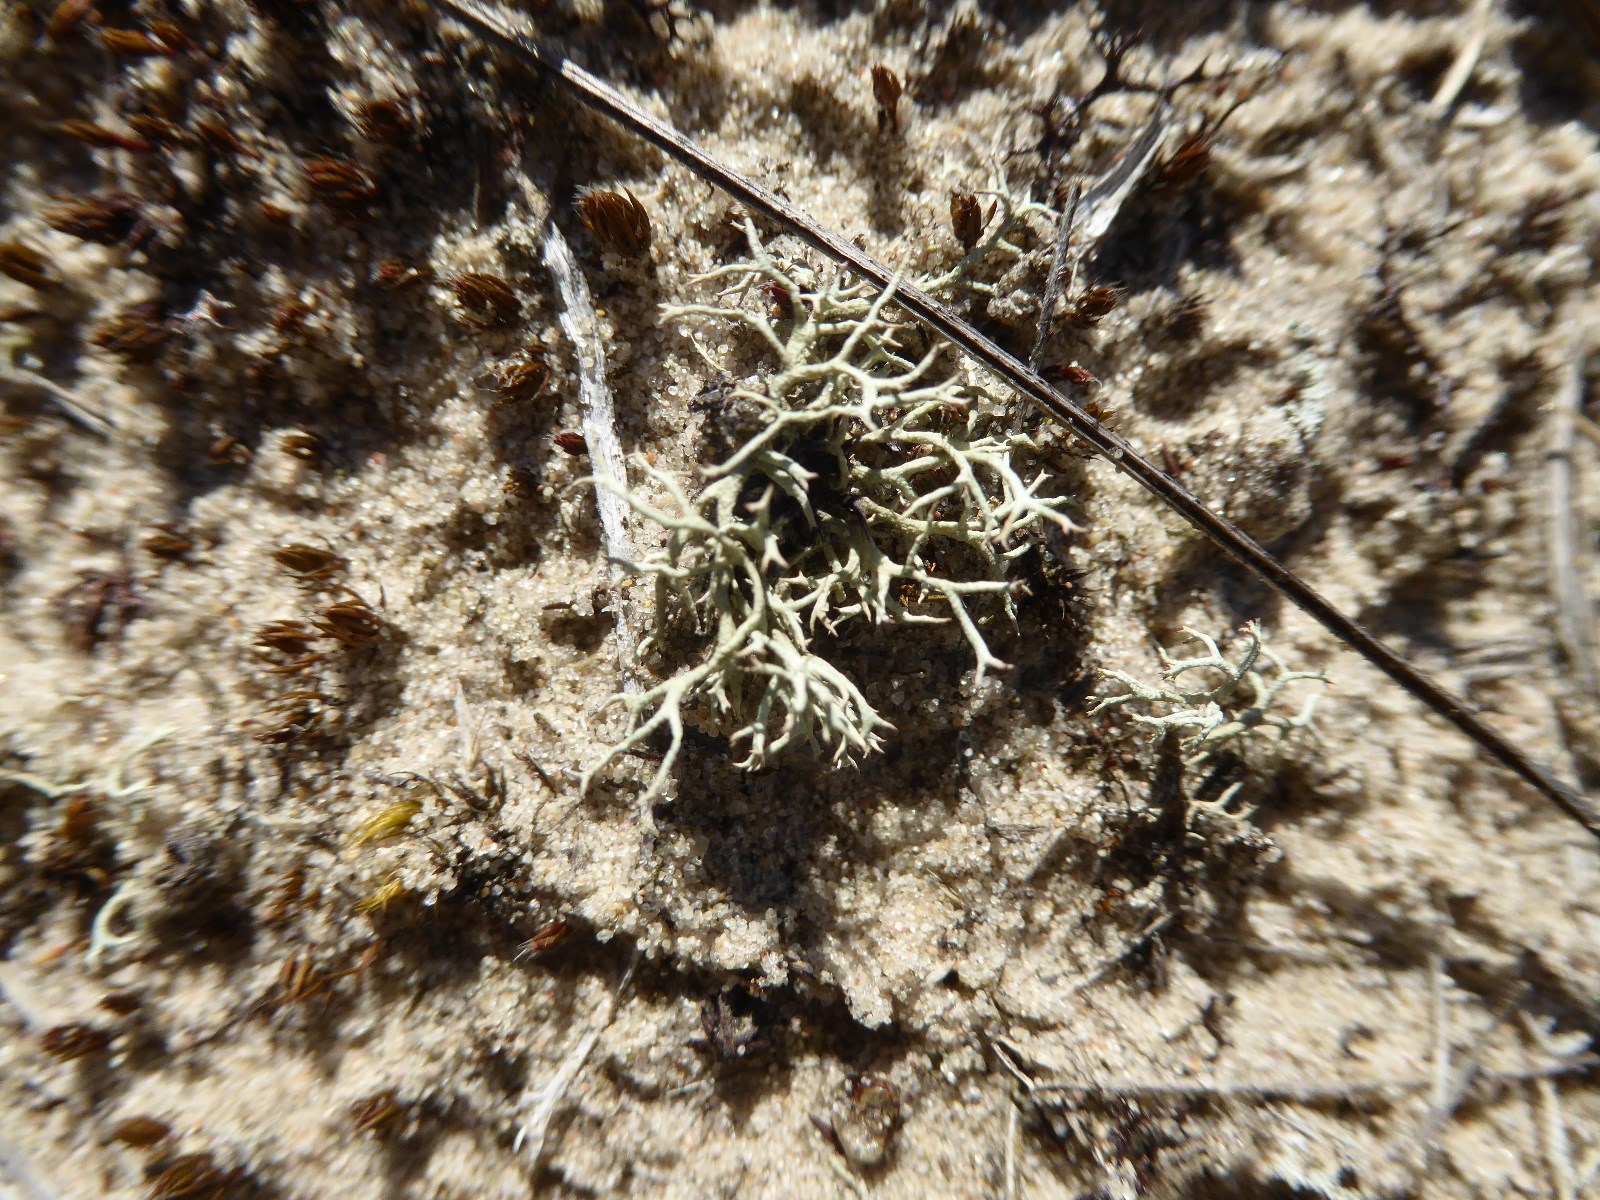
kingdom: Fungi
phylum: Ascomycota
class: Lecanoromycetes
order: Lecanorales
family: Cladoniaceae
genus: Cladonia
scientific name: Cladonia zopfii
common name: klit-bægerlav
